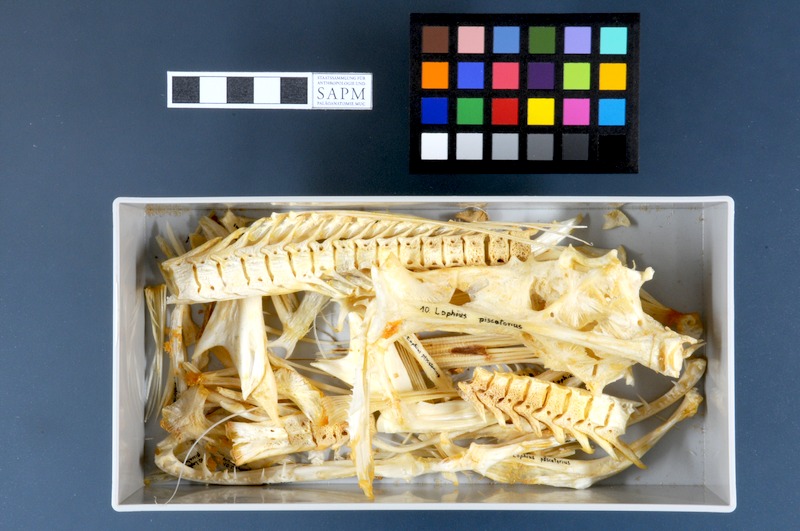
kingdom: Animalia
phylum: Chordata
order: Lophiiformes
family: Lophiidae
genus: Lophius
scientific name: Lophius piscatorius
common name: Angler
